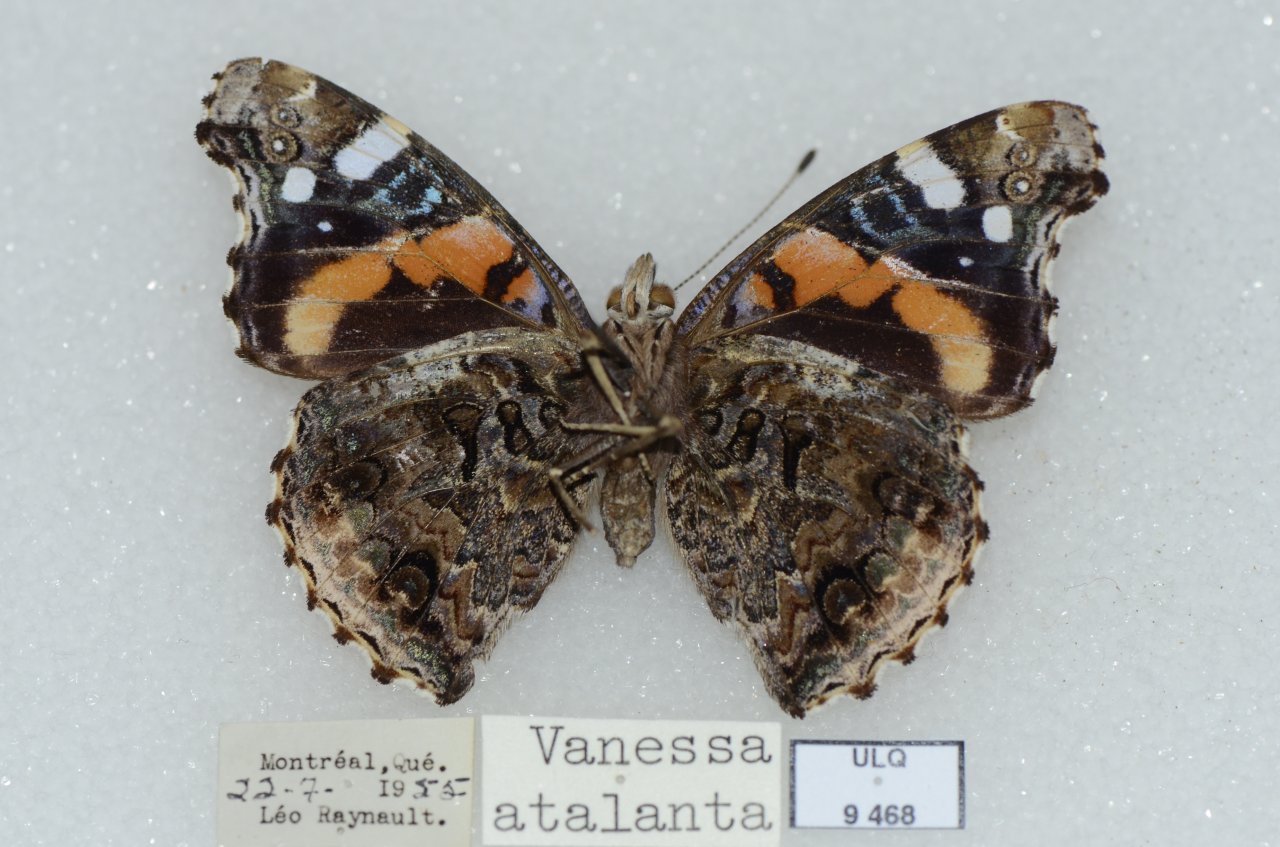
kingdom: Animalia
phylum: Arthropoda
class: Insecta
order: Lepidoptera
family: Nymphalidae
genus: Vanessa
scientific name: Vanessa atalanta
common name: Red Admiral
